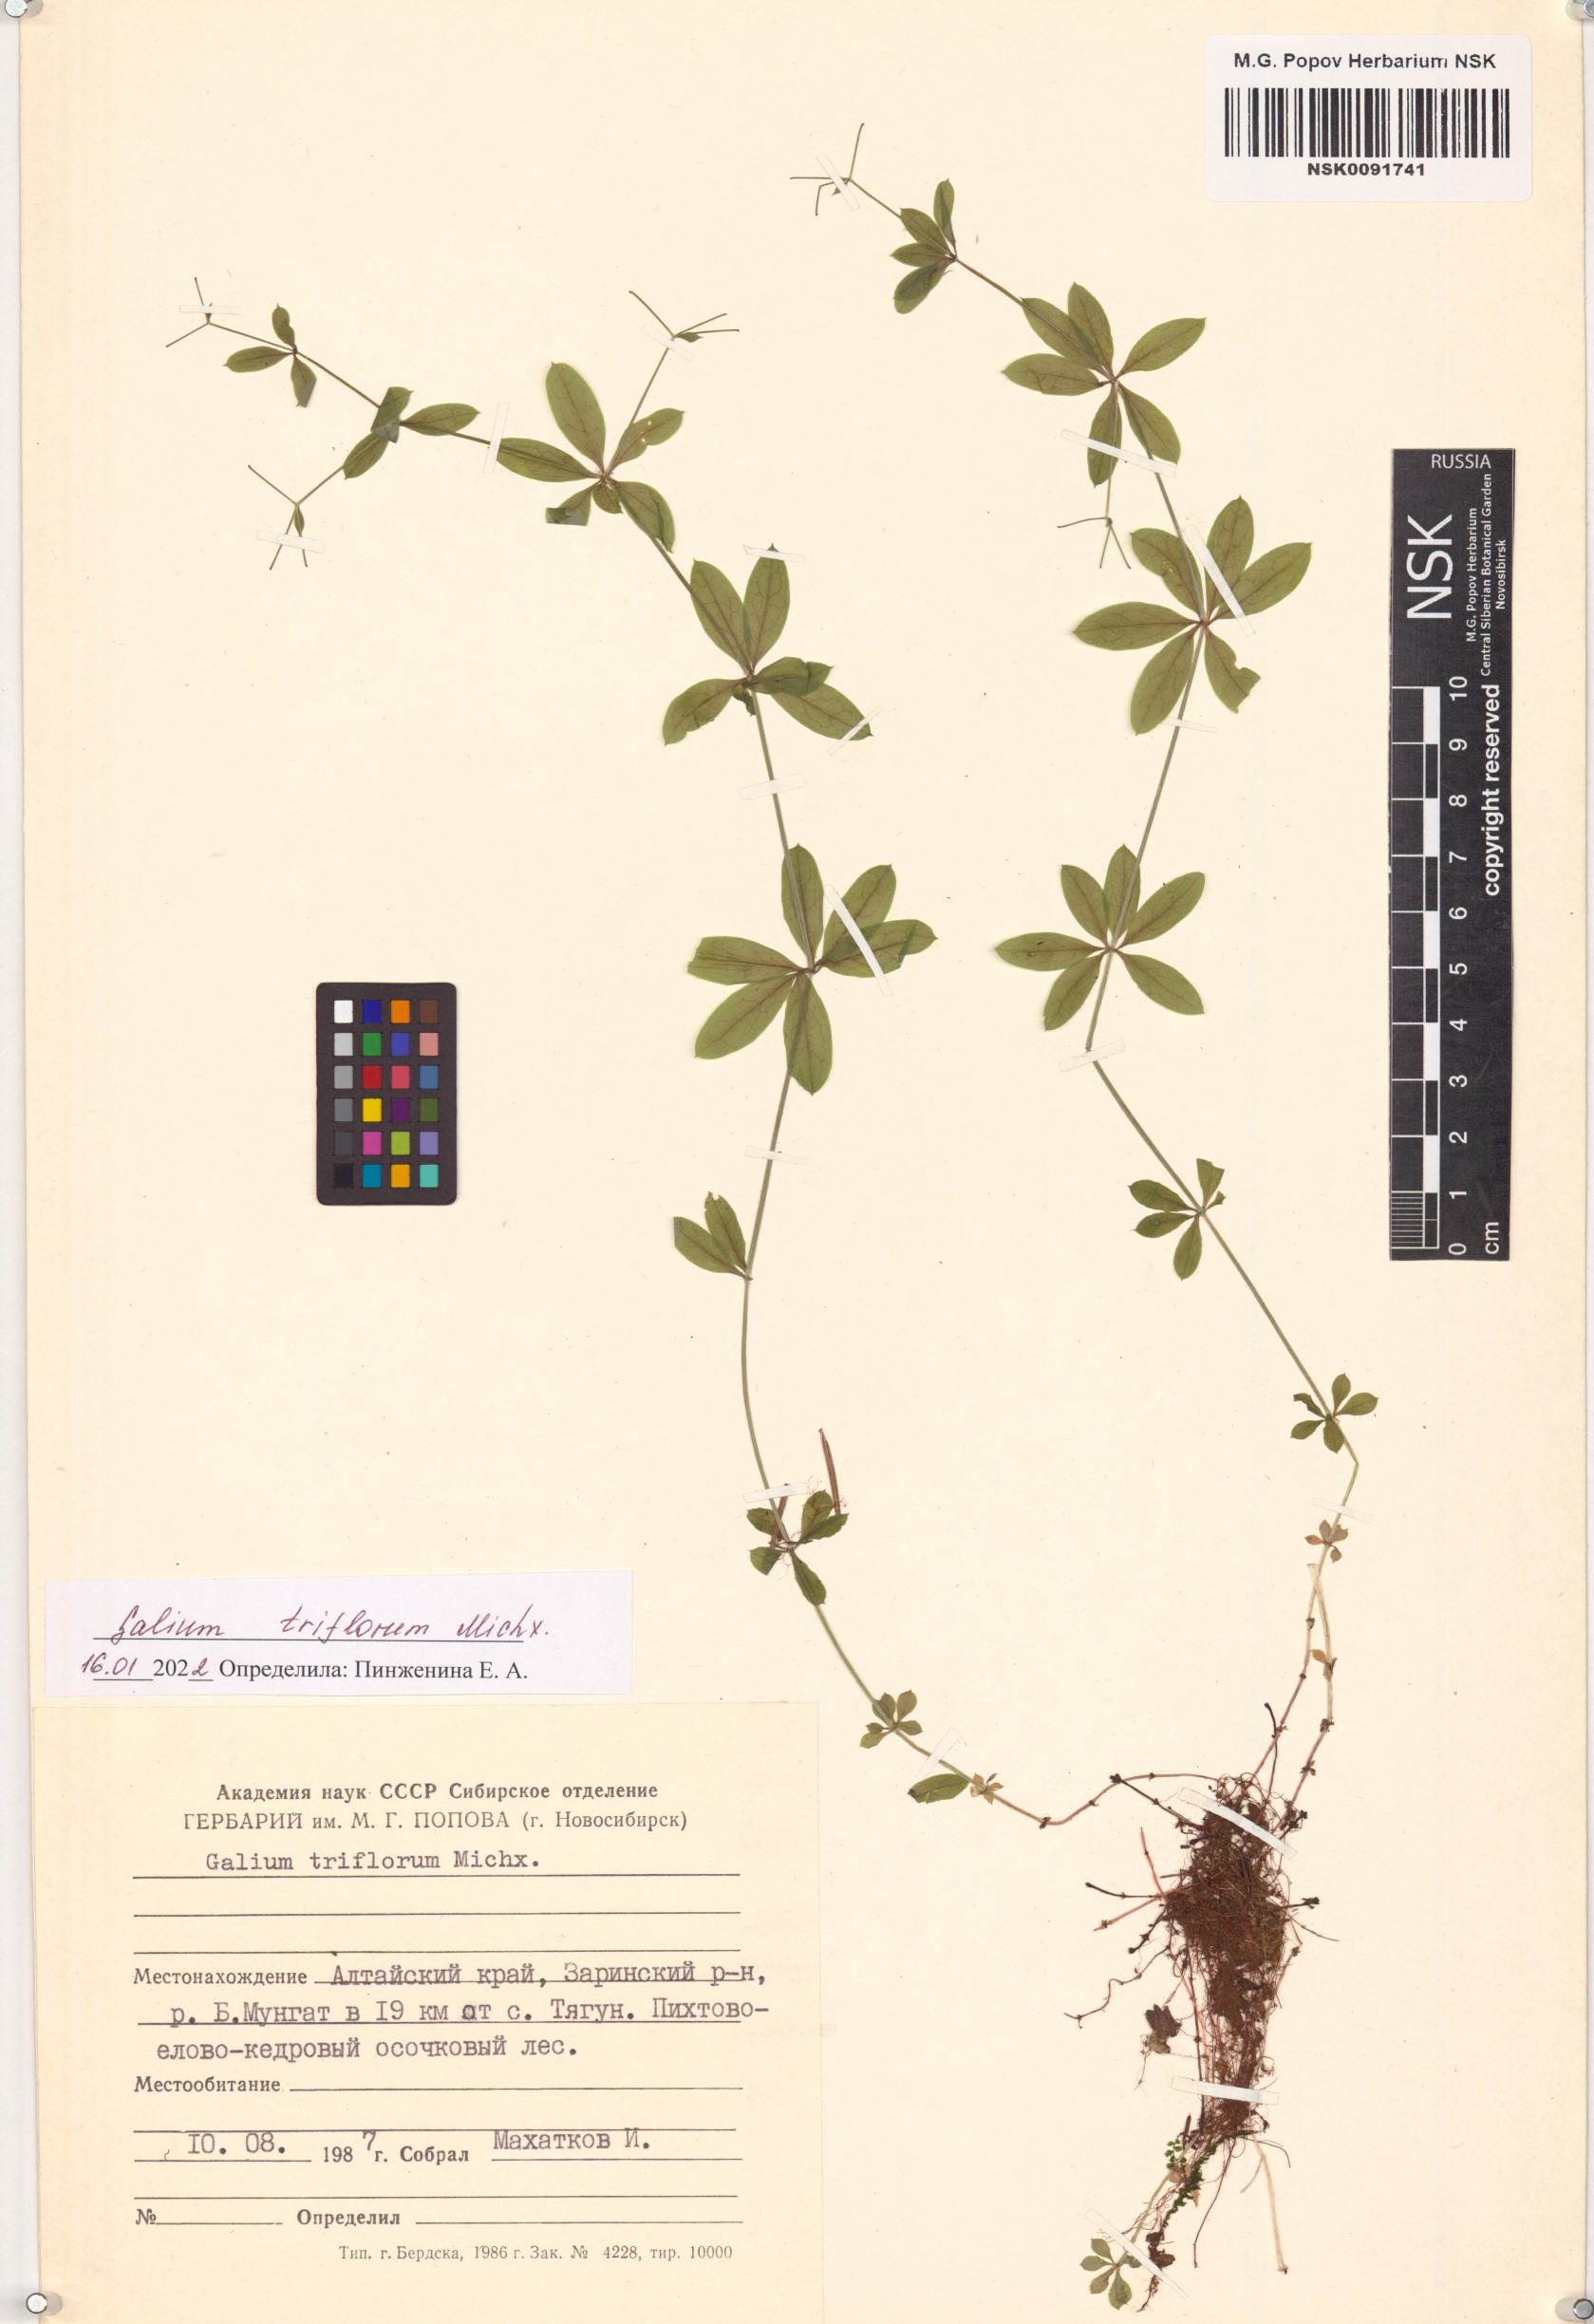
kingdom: Plantae
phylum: Tracheophyta
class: Magnoliopsida
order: Gentianales
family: Rubiaceae
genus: Galium
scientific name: Galium triflorum
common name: Fragrant bedstraw
